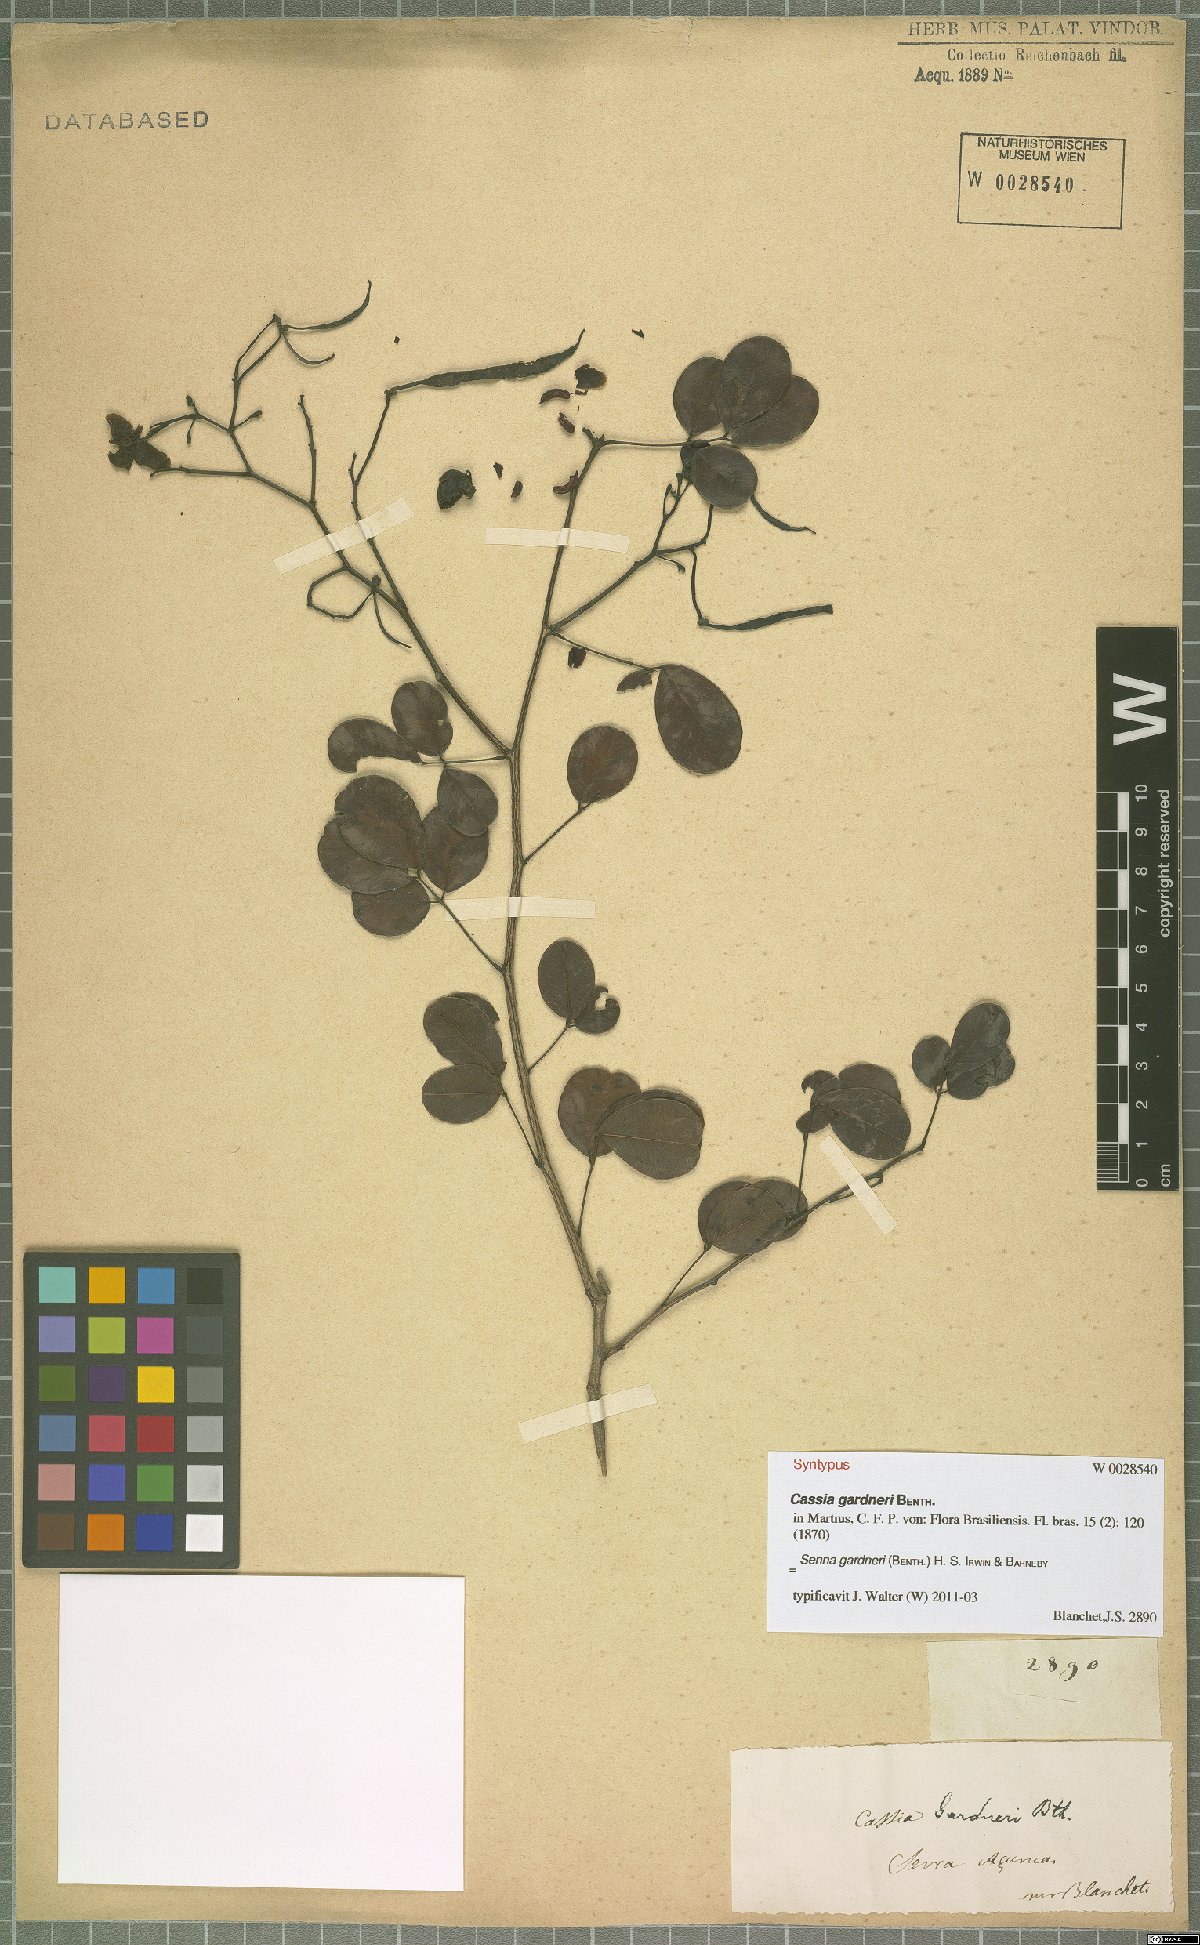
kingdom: Plantae
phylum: Tracheophyta
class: Magnoliopsida
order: Fabales
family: Fabaceae
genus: Senna
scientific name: Senna gardneri
